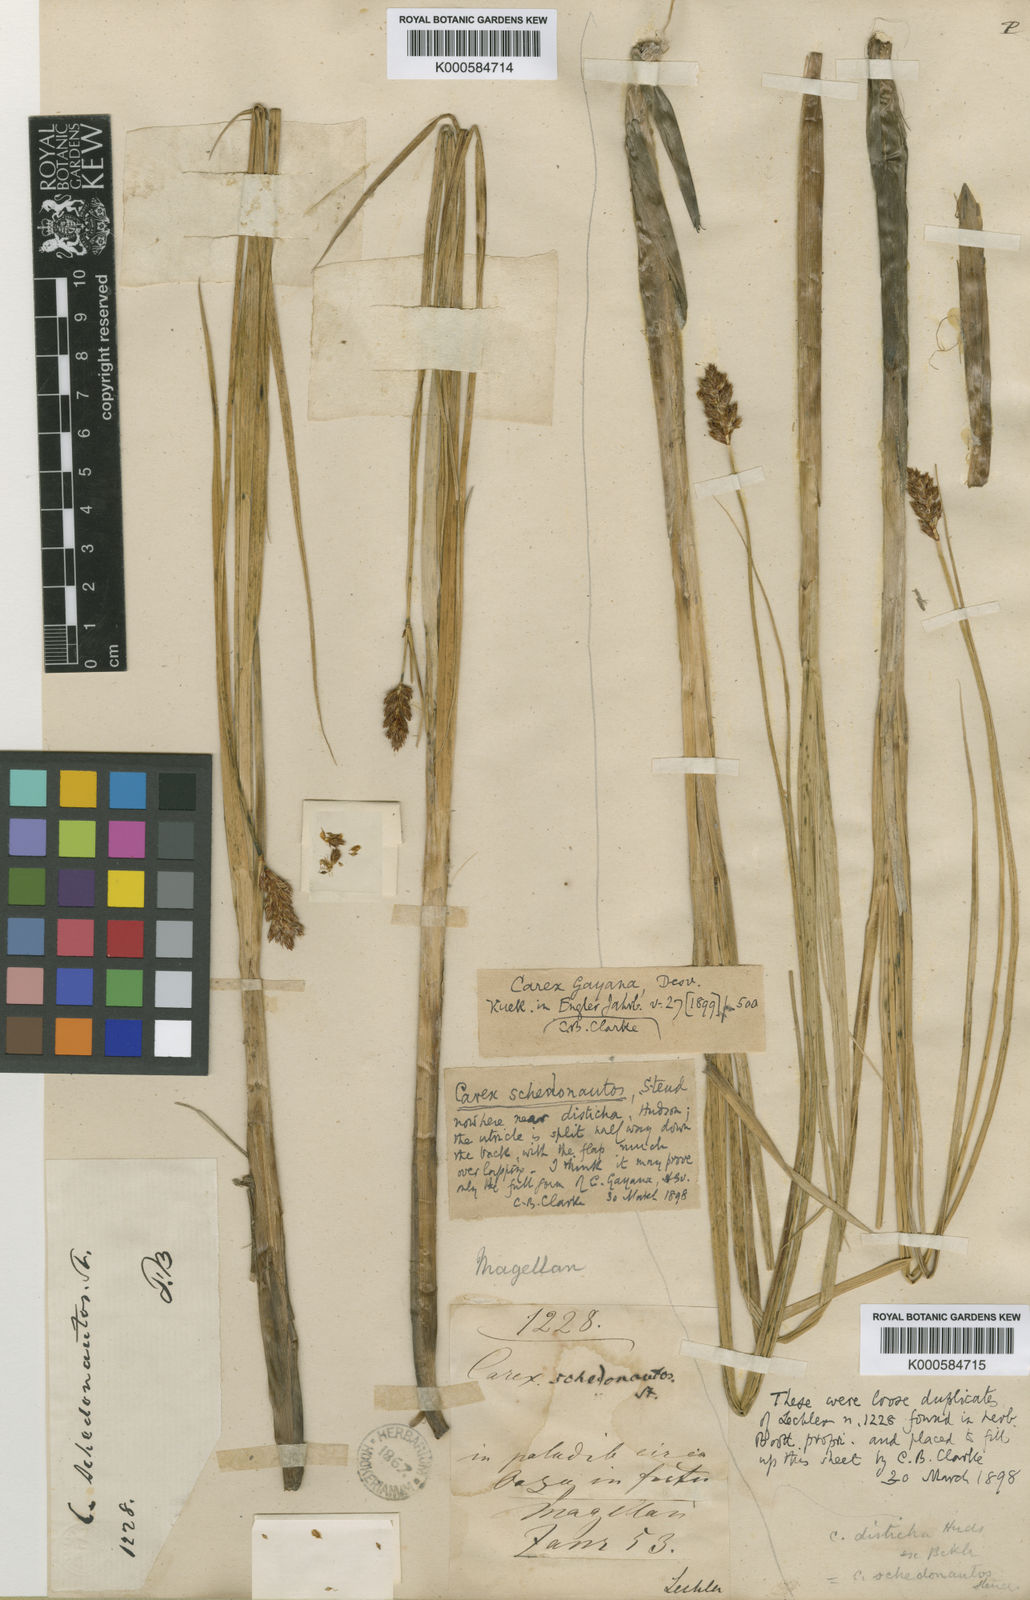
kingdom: Plantae
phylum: Tracheophyta
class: Liliopsida
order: Poales
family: Cyperaceae
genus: Carex
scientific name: Carex gayana
